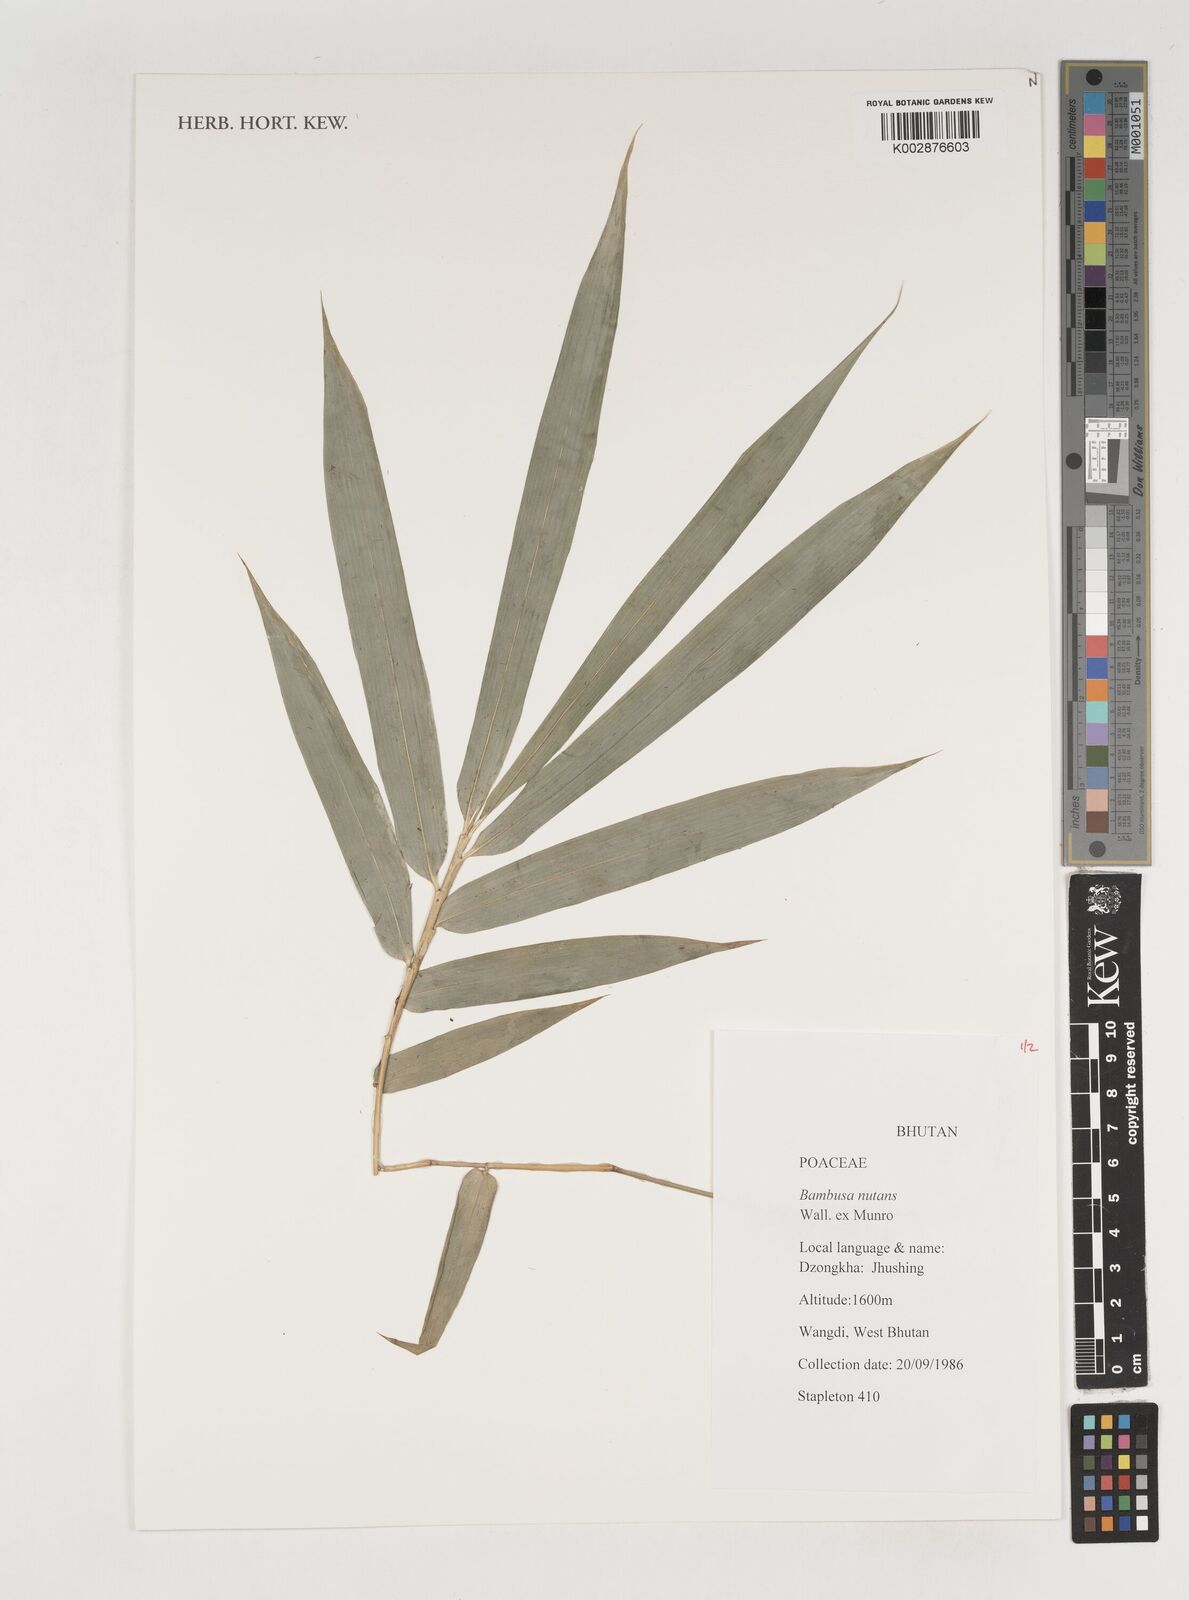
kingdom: Plantae
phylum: Tracheophyta
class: Liliopsida
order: Poales
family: Poaceae
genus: Bambusa
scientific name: Bambusa nutans
